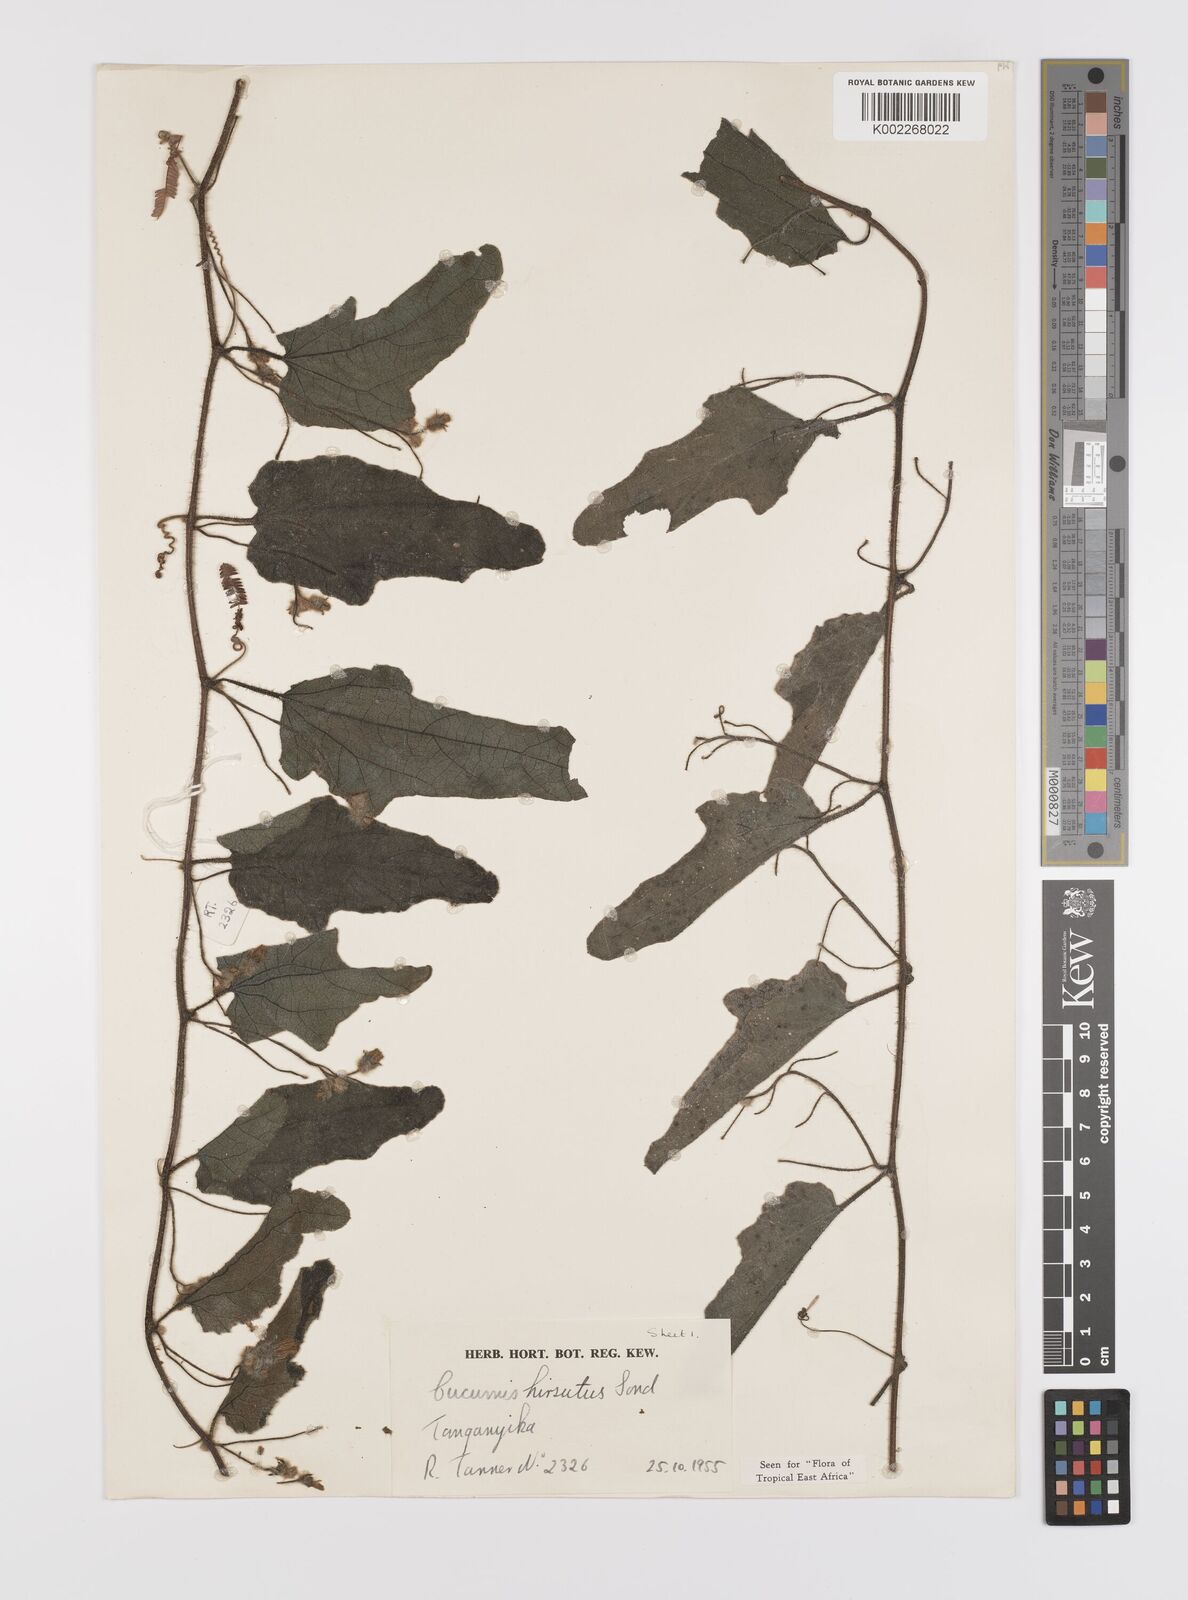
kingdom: Plantae
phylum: Tracheophyta
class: Magnoliopsida
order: Cucurbitales
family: Cucurbitaceae
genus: Cucumis
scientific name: Cucumis hirsutus
